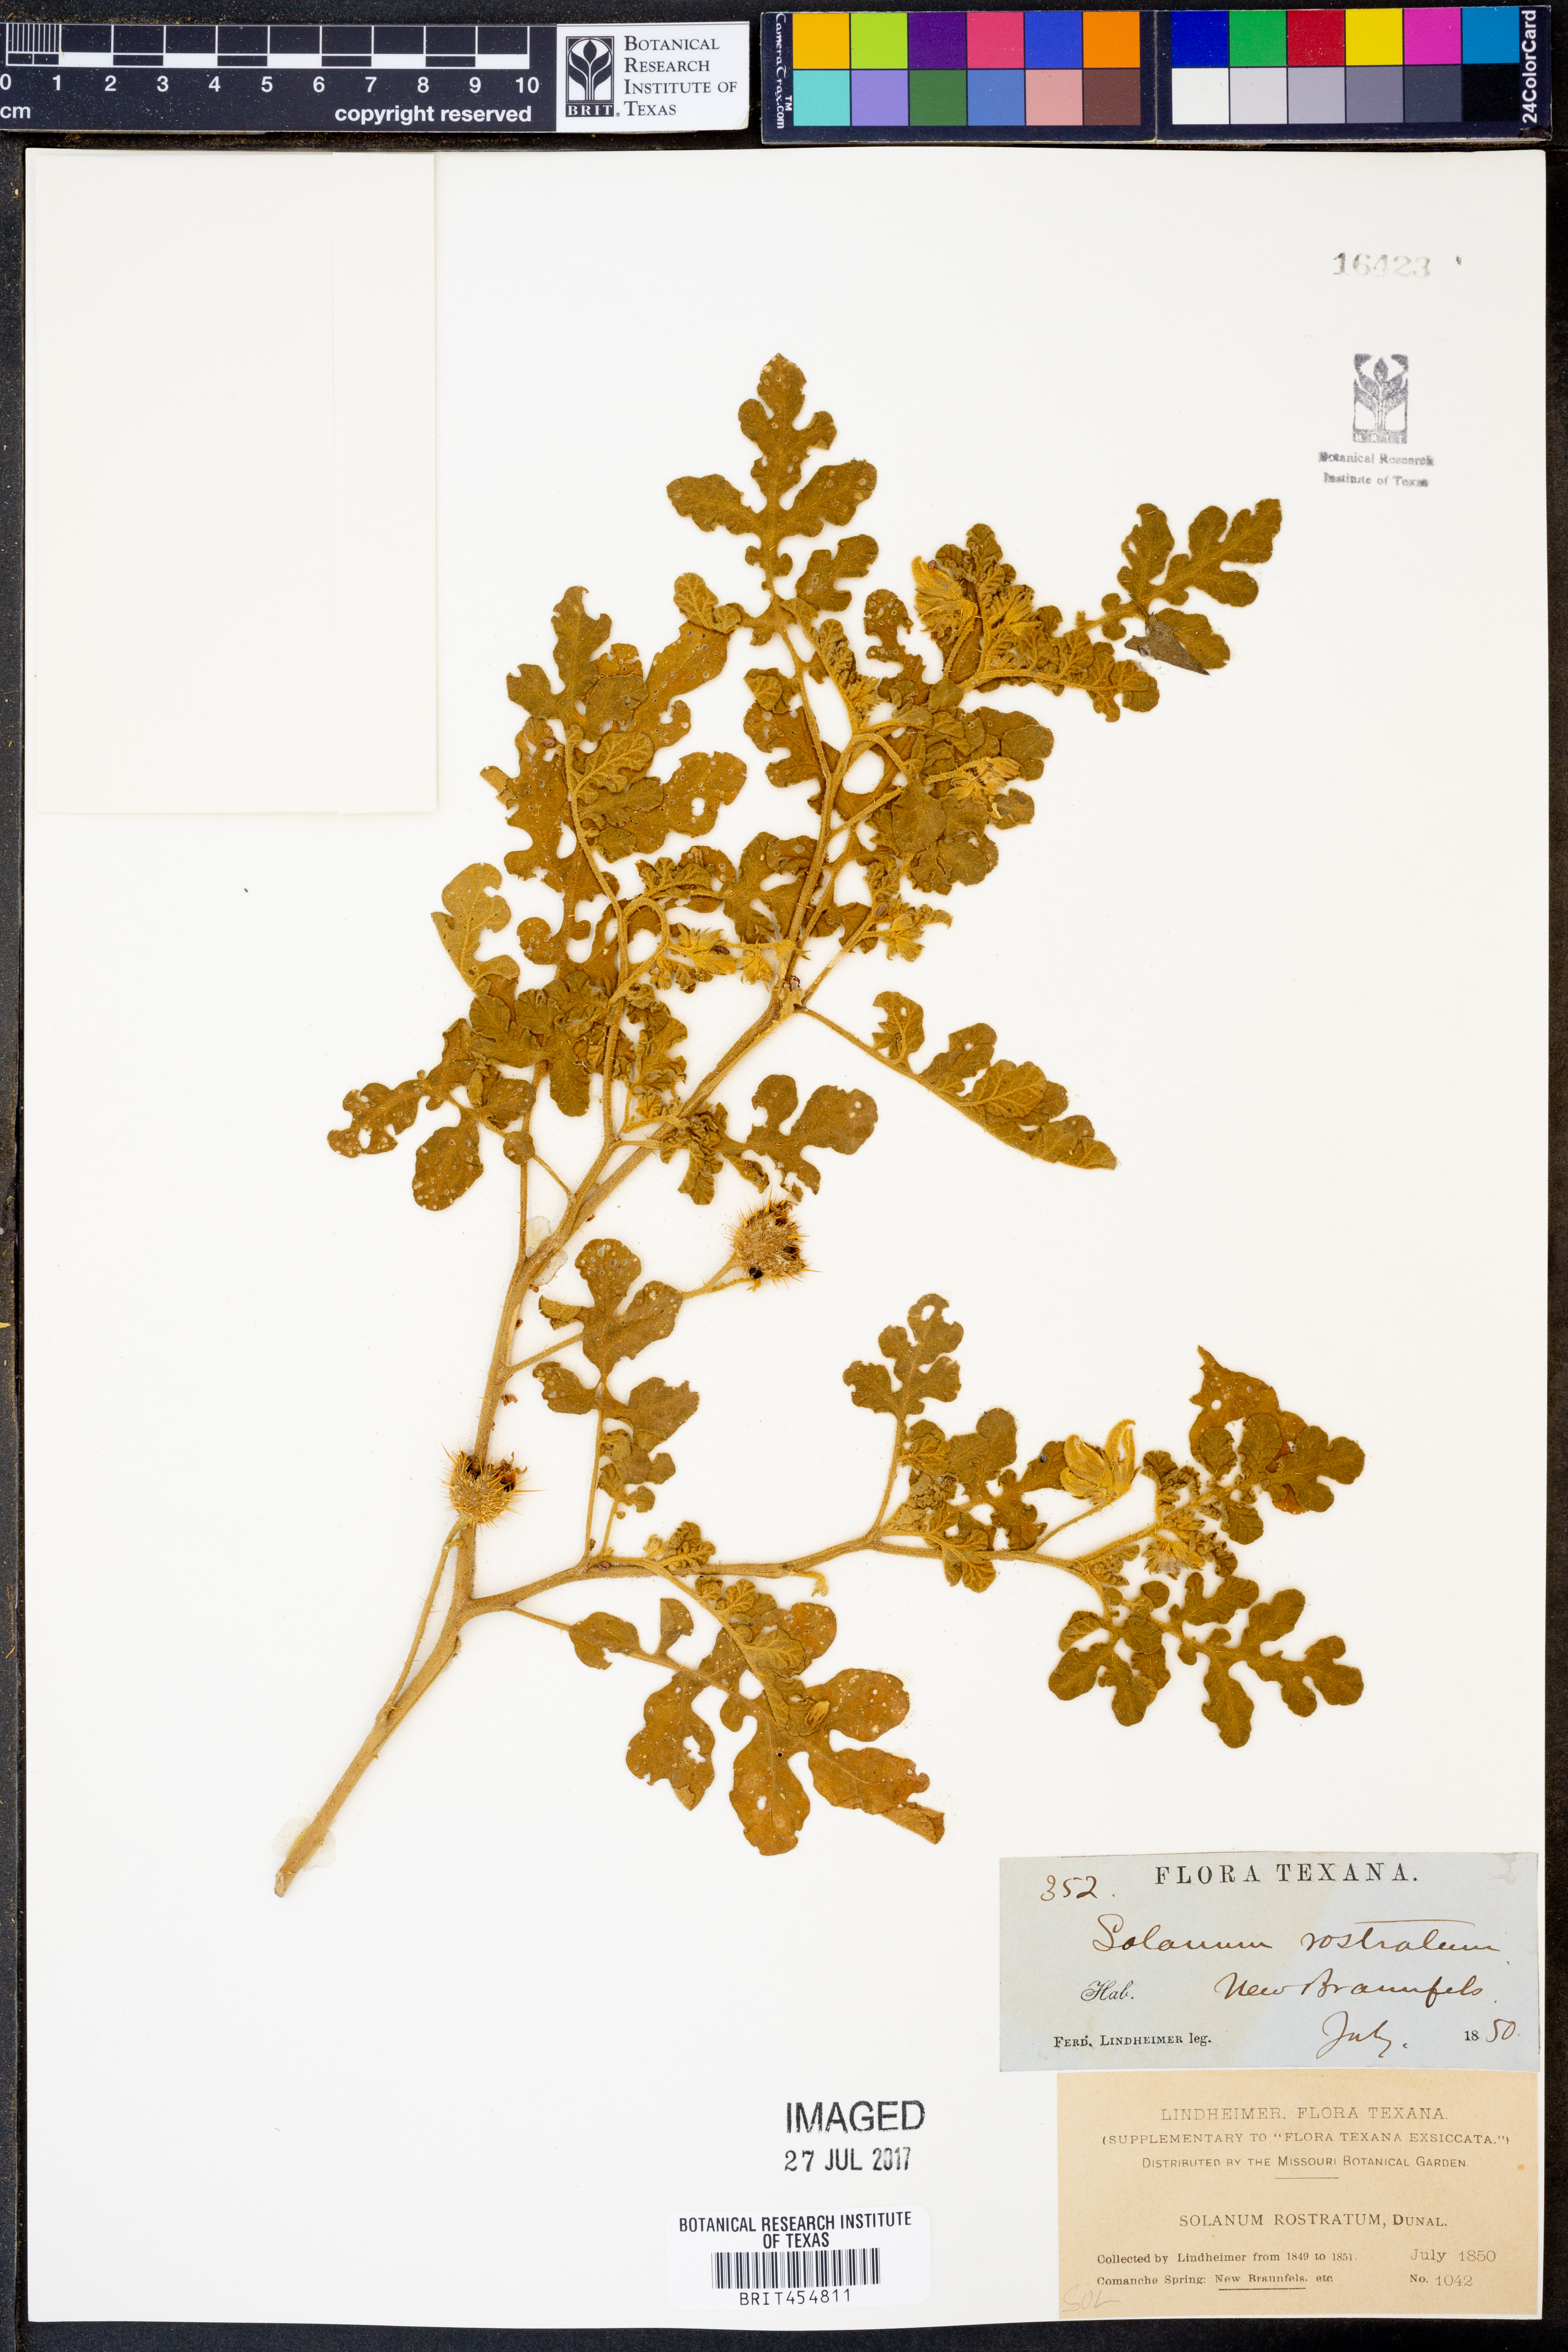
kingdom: Plantae
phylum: Tracheophyta
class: Magnoliopsida
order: Solanales
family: Solanaceae
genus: Solanum
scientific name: Solanum angustifolium
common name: Buffalobur nightshade
